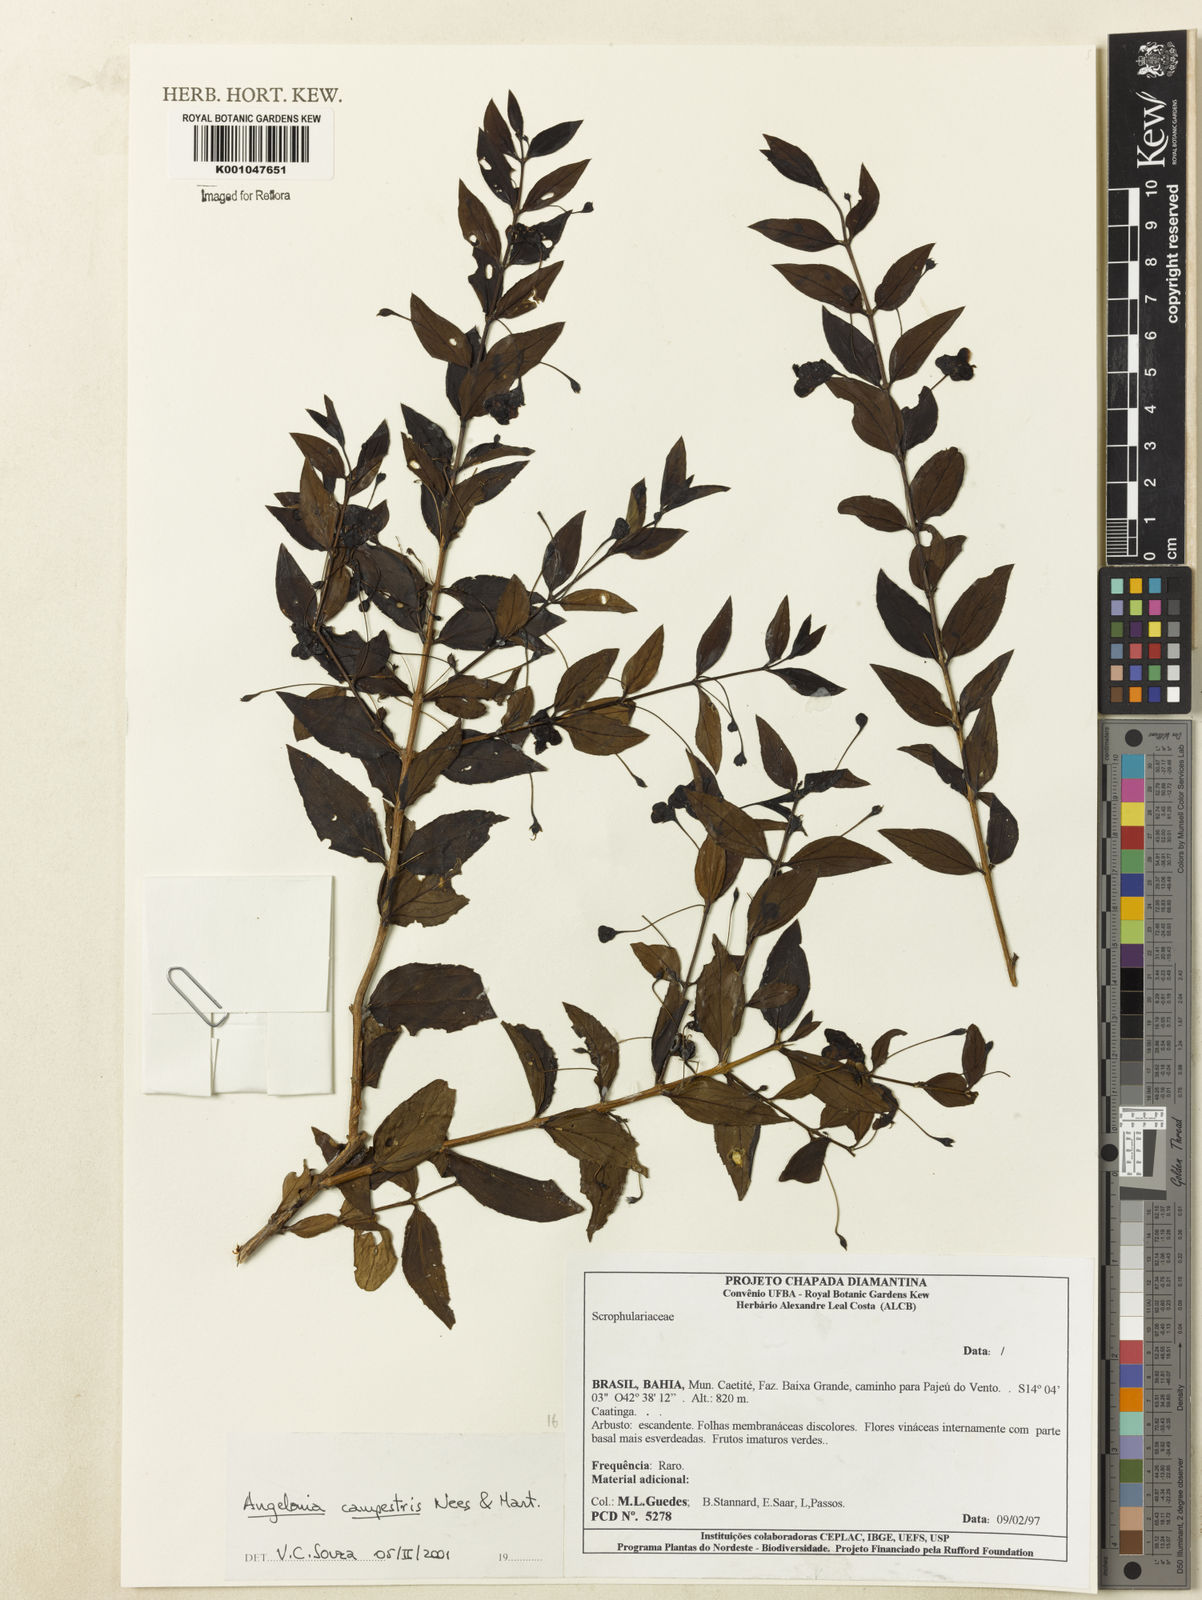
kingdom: Plantae
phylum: Tracheophyta
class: Magnoliopsida
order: Lamiales
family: Plantaginaceae
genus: Angelonia
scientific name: Angelonia campestris
